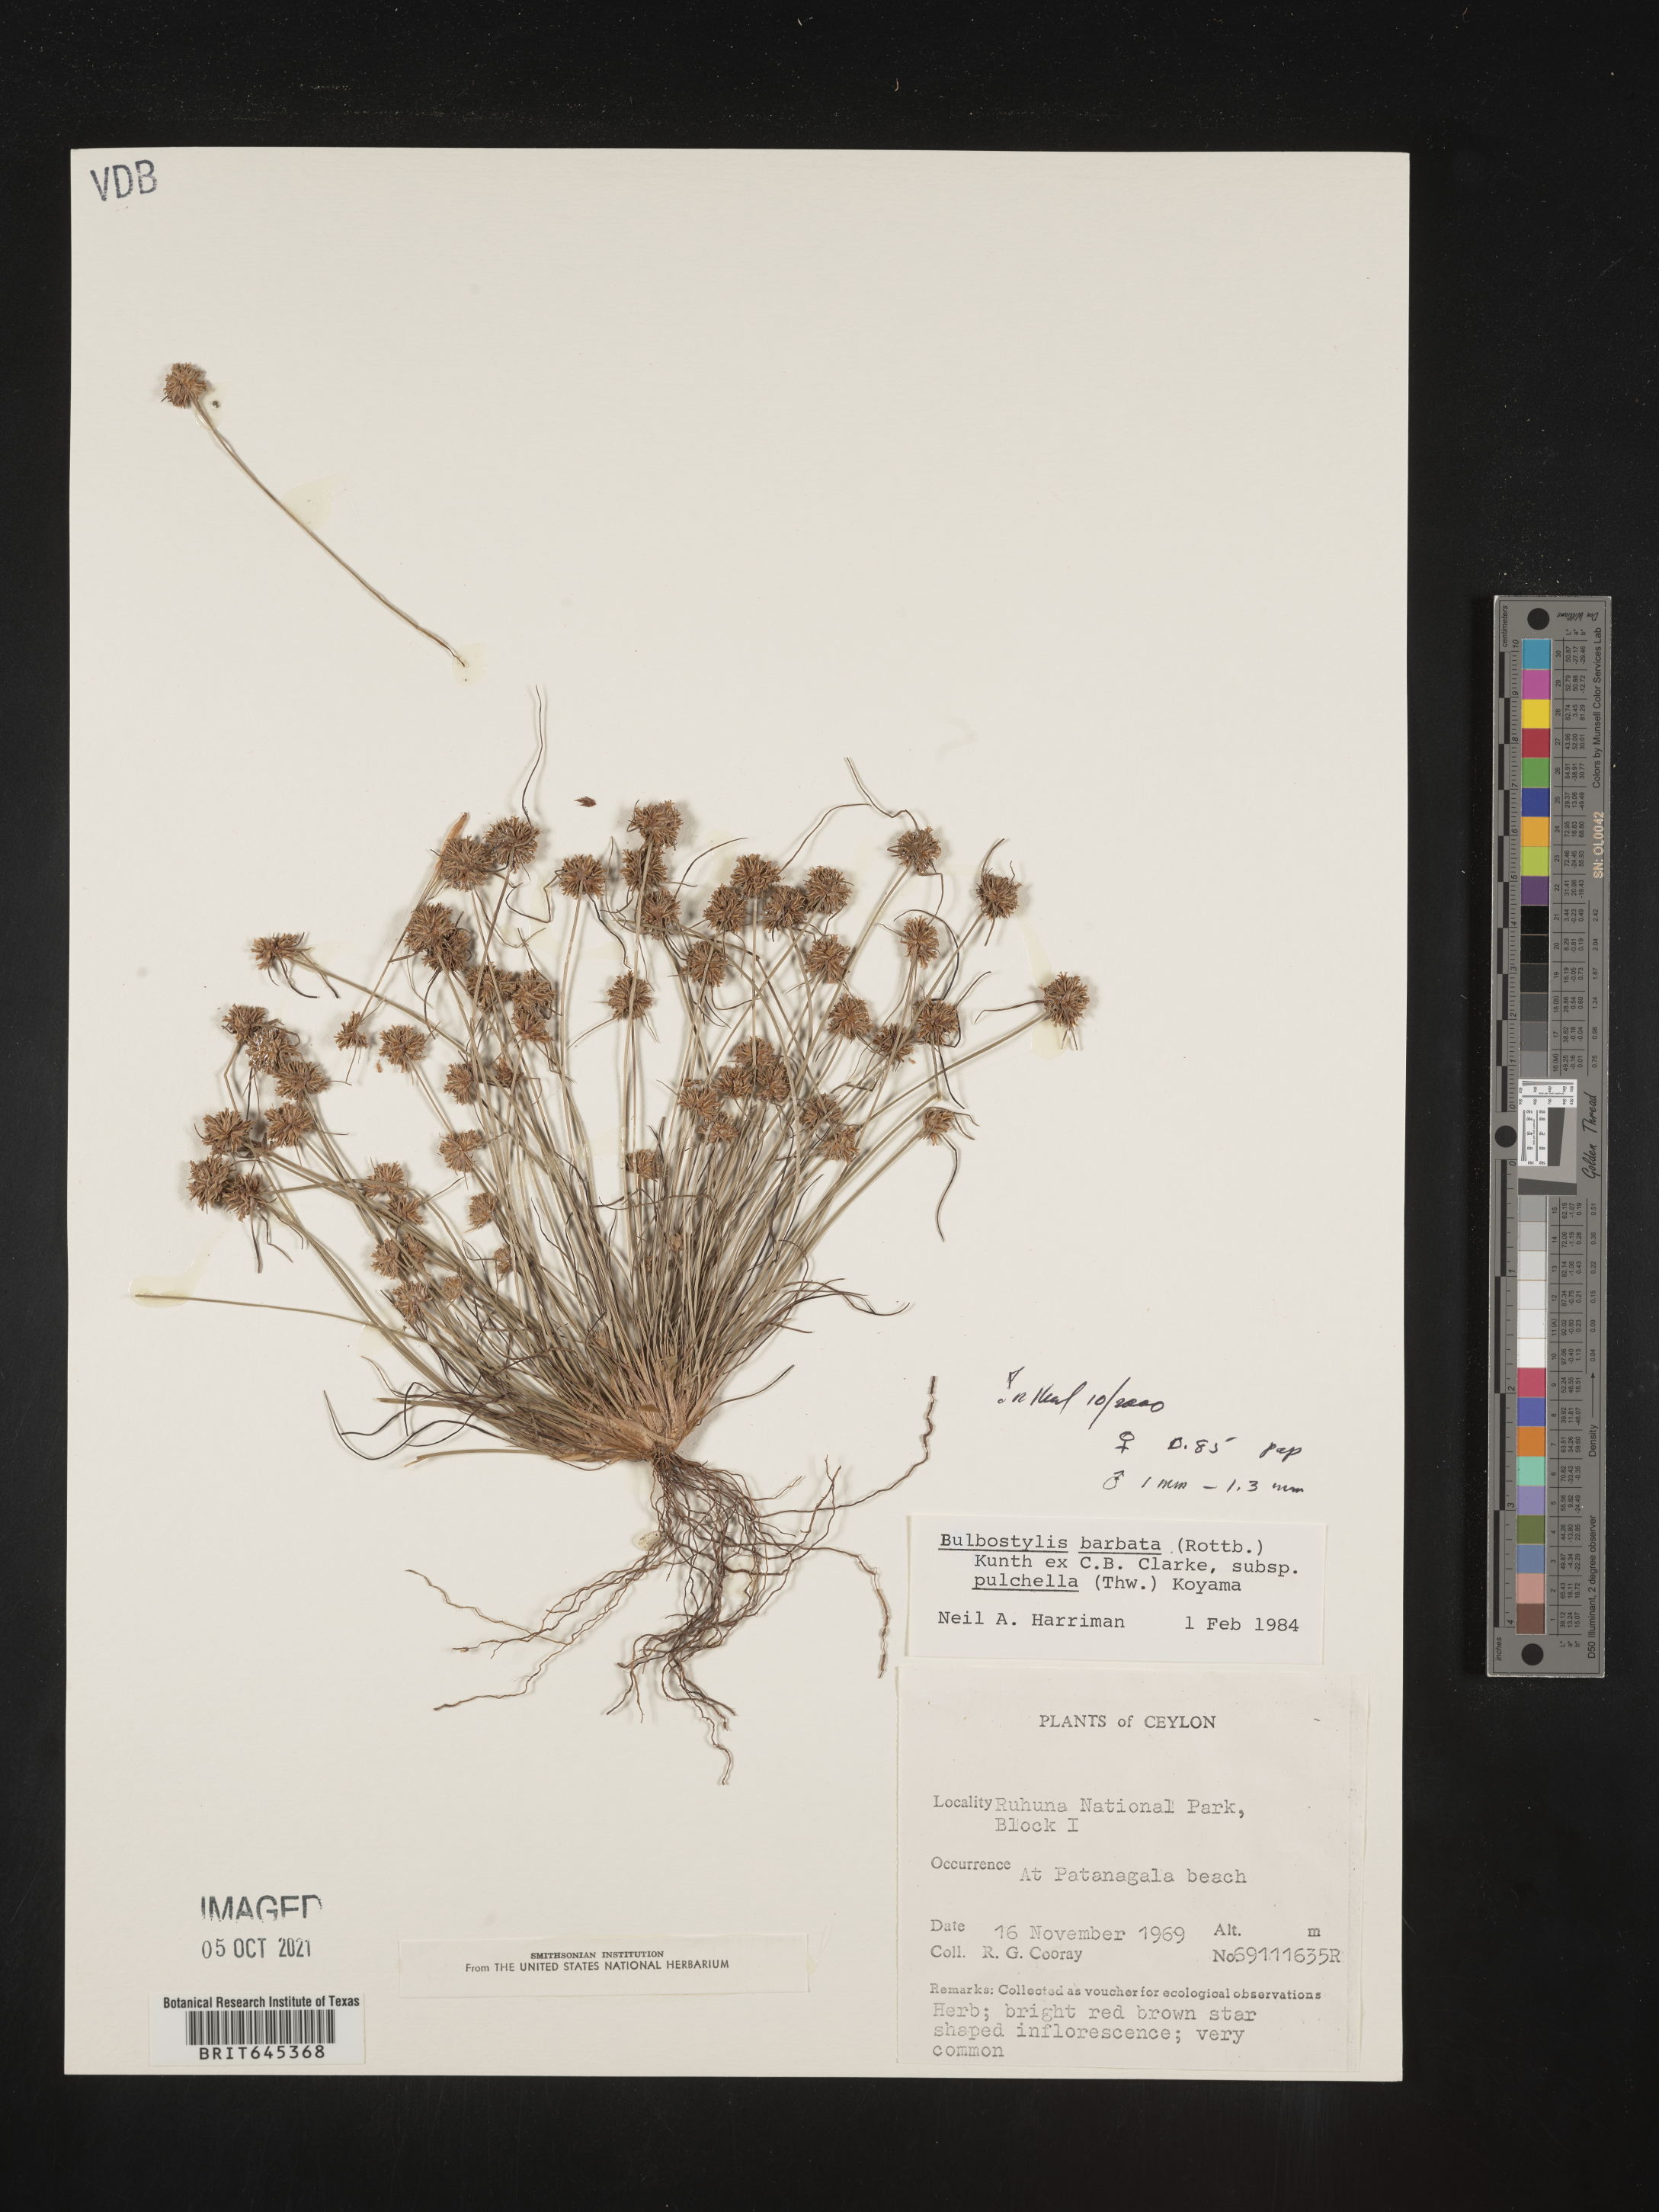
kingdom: Plantae
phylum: Tracheophyta
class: Liliopsida
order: Poales
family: Cyperaceae
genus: Bulbostylis
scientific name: Bulbostylis barbata
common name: Watergrass
